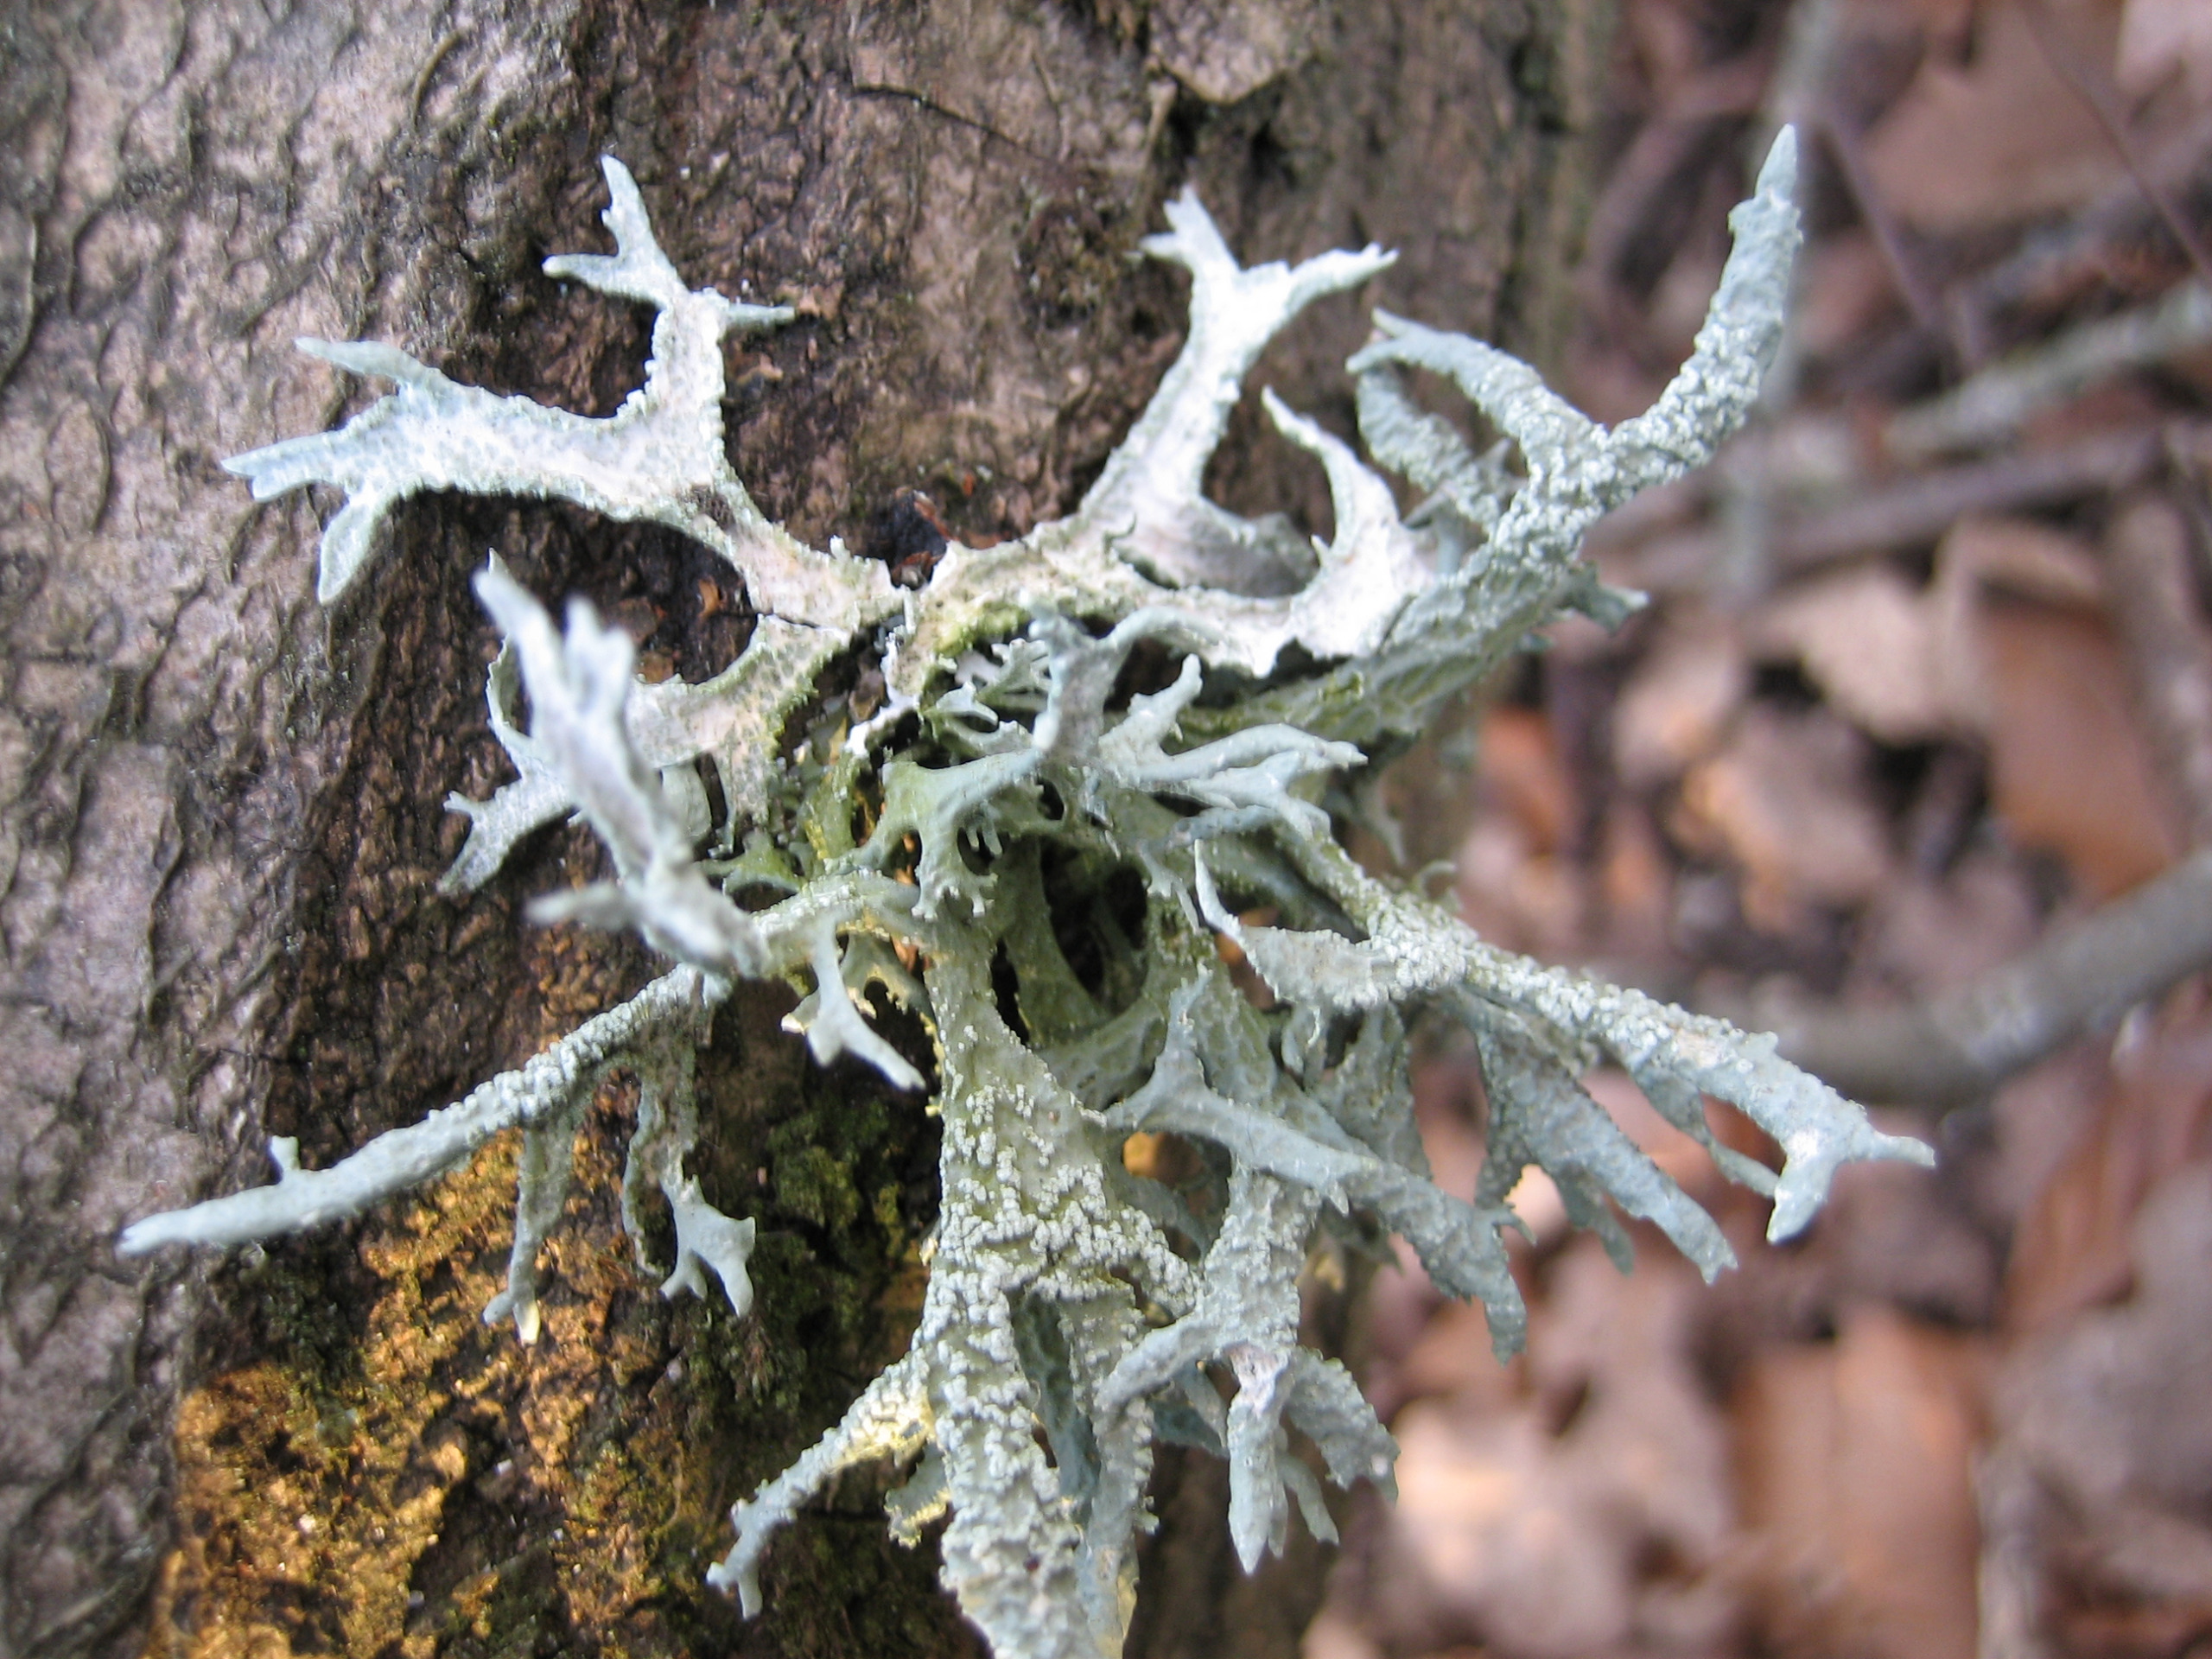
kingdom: Fungi
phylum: Ascomycota
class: Lecanoromycetes
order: Lecanorales
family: Parmeliaceae
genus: Evernia
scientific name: Evernia prunastri
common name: Almindelig slåenlav
